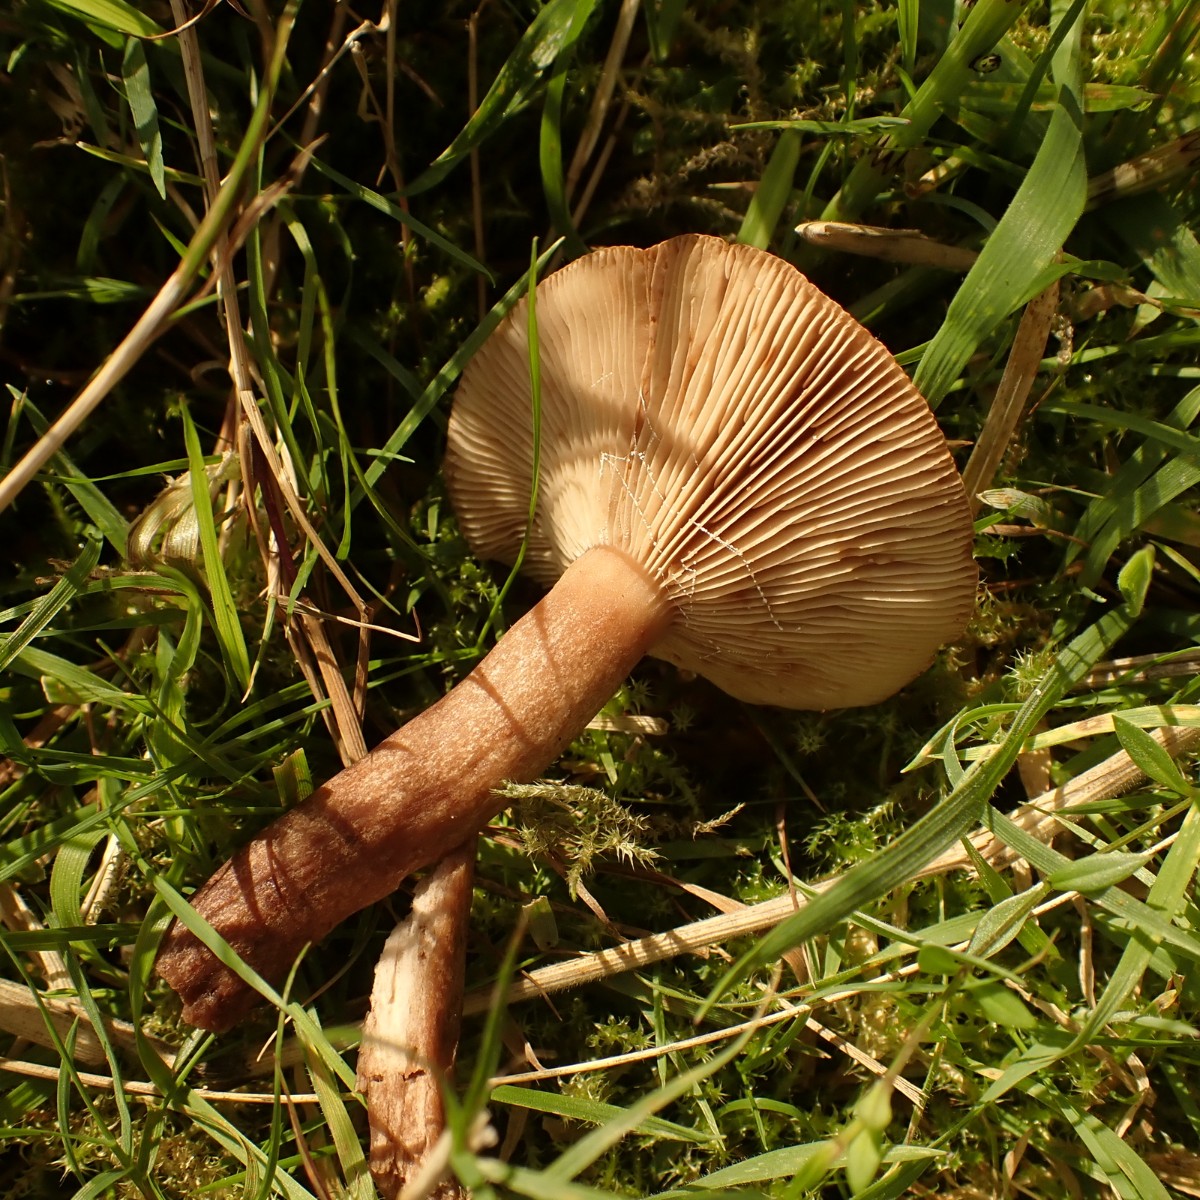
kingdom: Fungi
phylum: Basidiomycota
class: Agaricomycetes
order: Russulales
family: Russulaceae
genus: Lactarius
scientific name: Lactarius quietus
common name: ege-mælkehat
